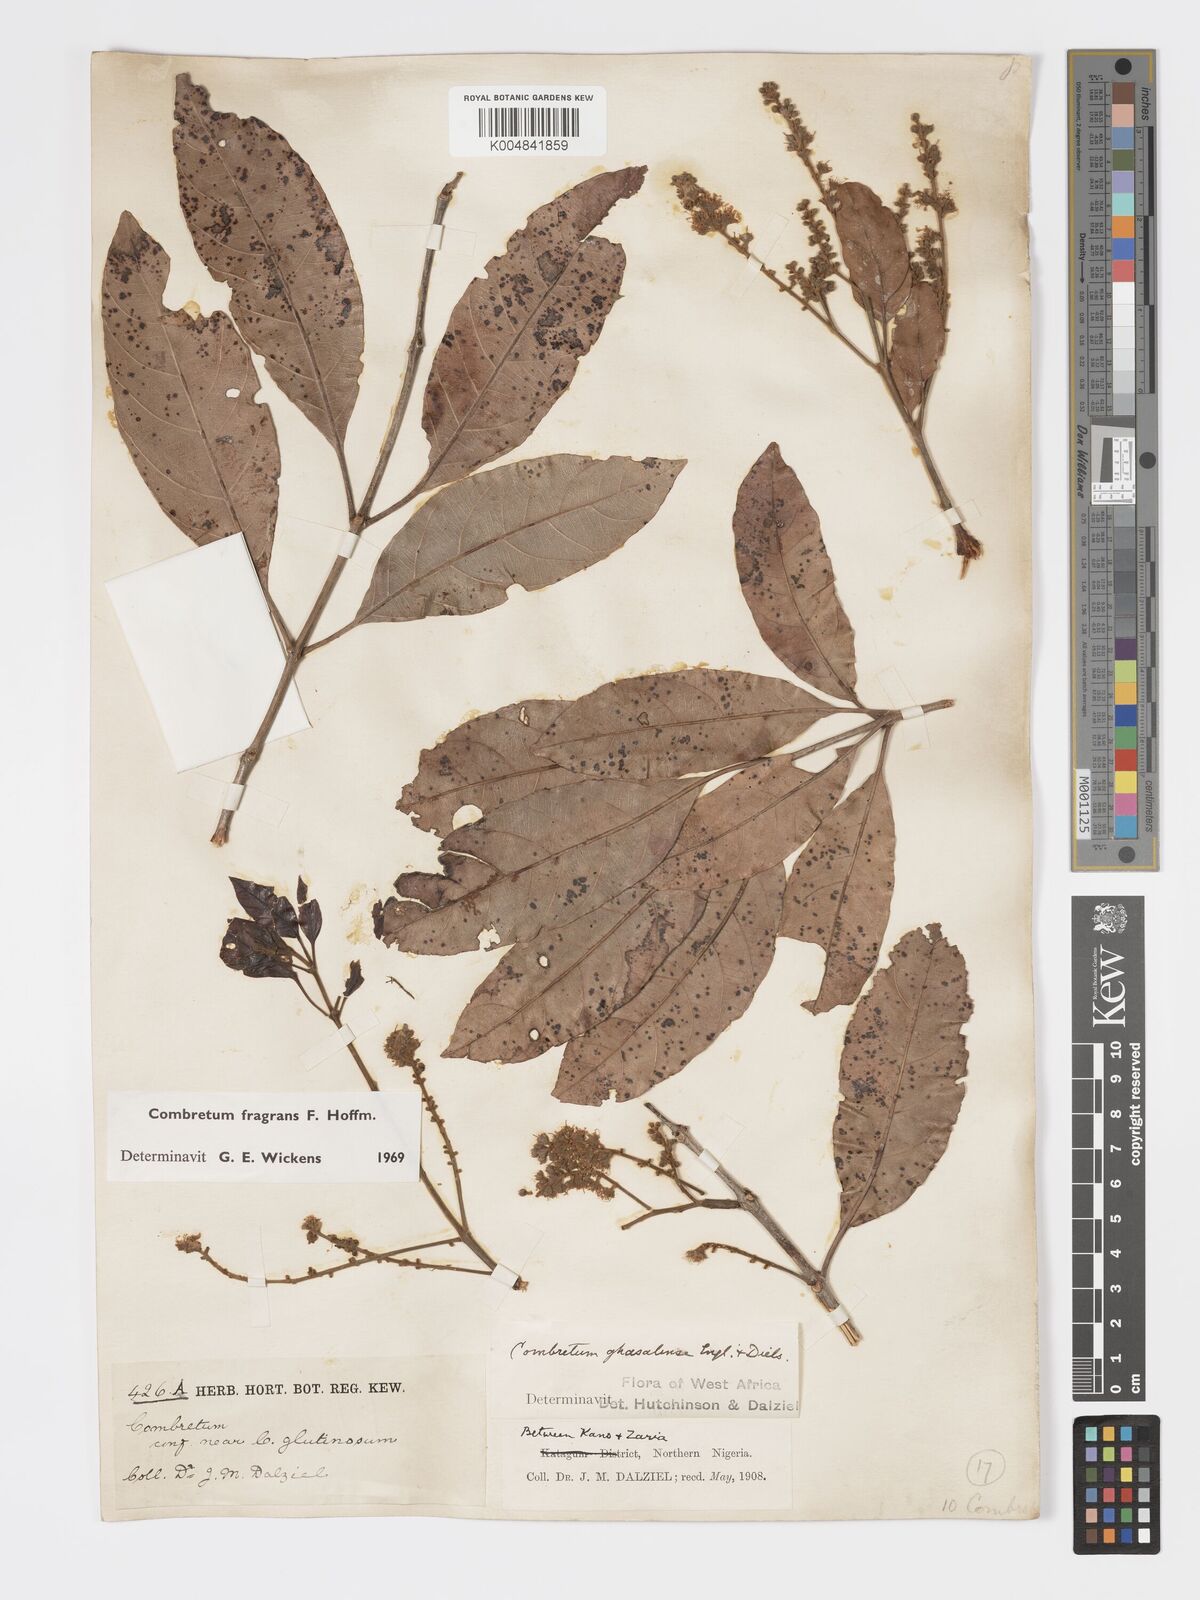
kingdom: Plantae
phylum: Tracheophyta
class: Magnoliopsida
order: Myrtales
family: Combretaceae
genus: Combretum
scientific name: Combretum adenogonium
